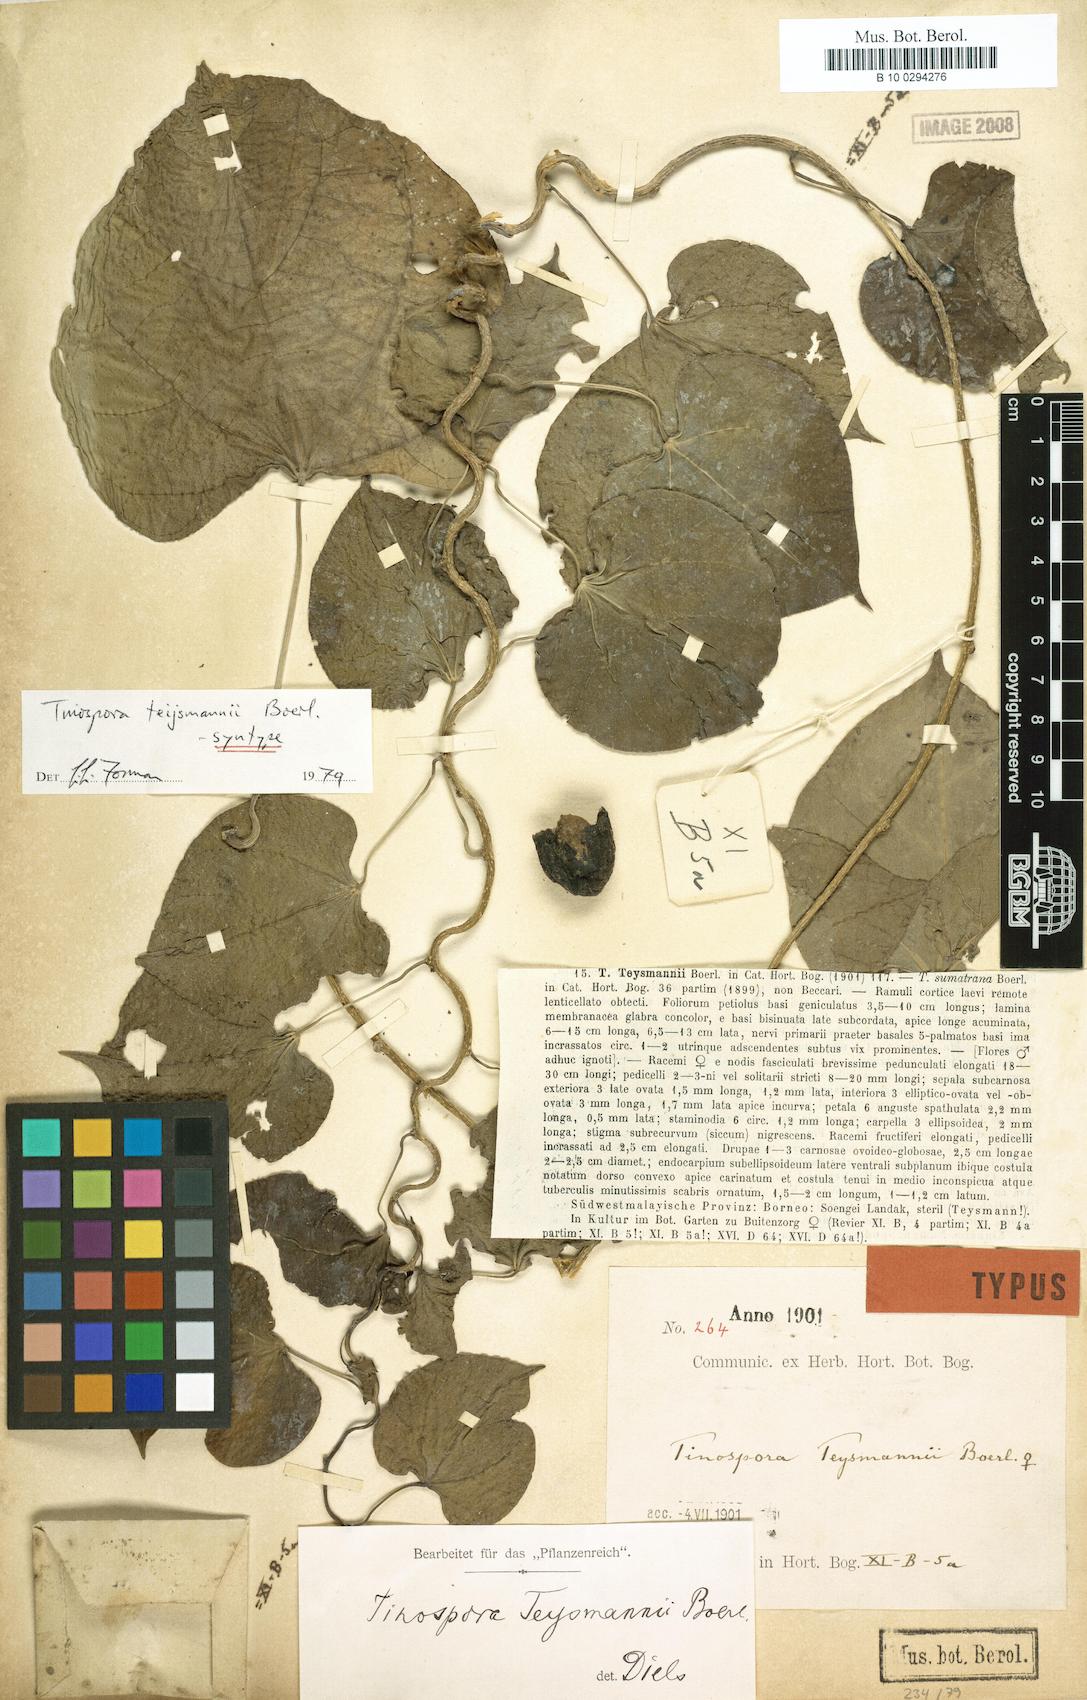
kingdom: Plantae
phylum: Tracheophyta
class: Magnoliopsida
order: Ranunculales
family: Menispermaceae
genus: Tinospora
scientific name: Tinospora teijsmannii
